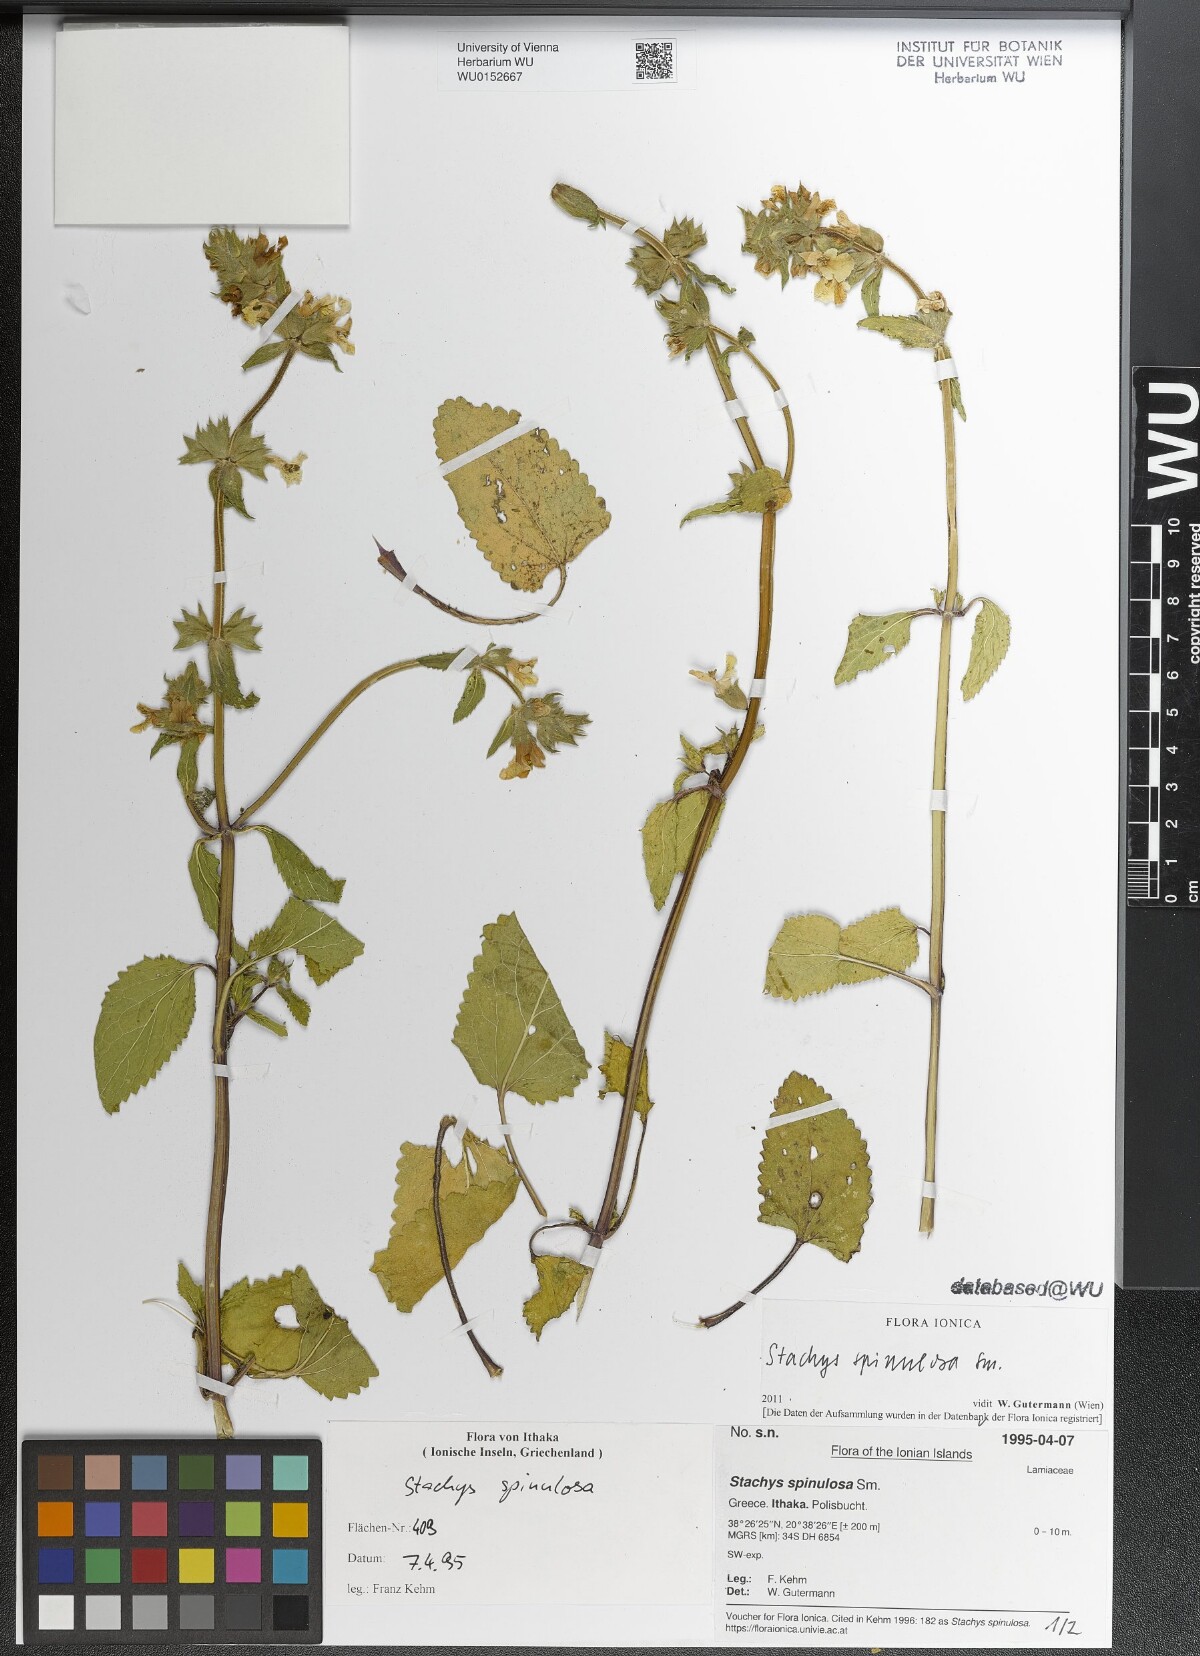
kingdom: Plantae
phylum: Tracheophyta
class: Magnoliopsida
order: Lamiales
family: Lamiaceae
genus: Stachys
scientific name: Stachys spinulosa
